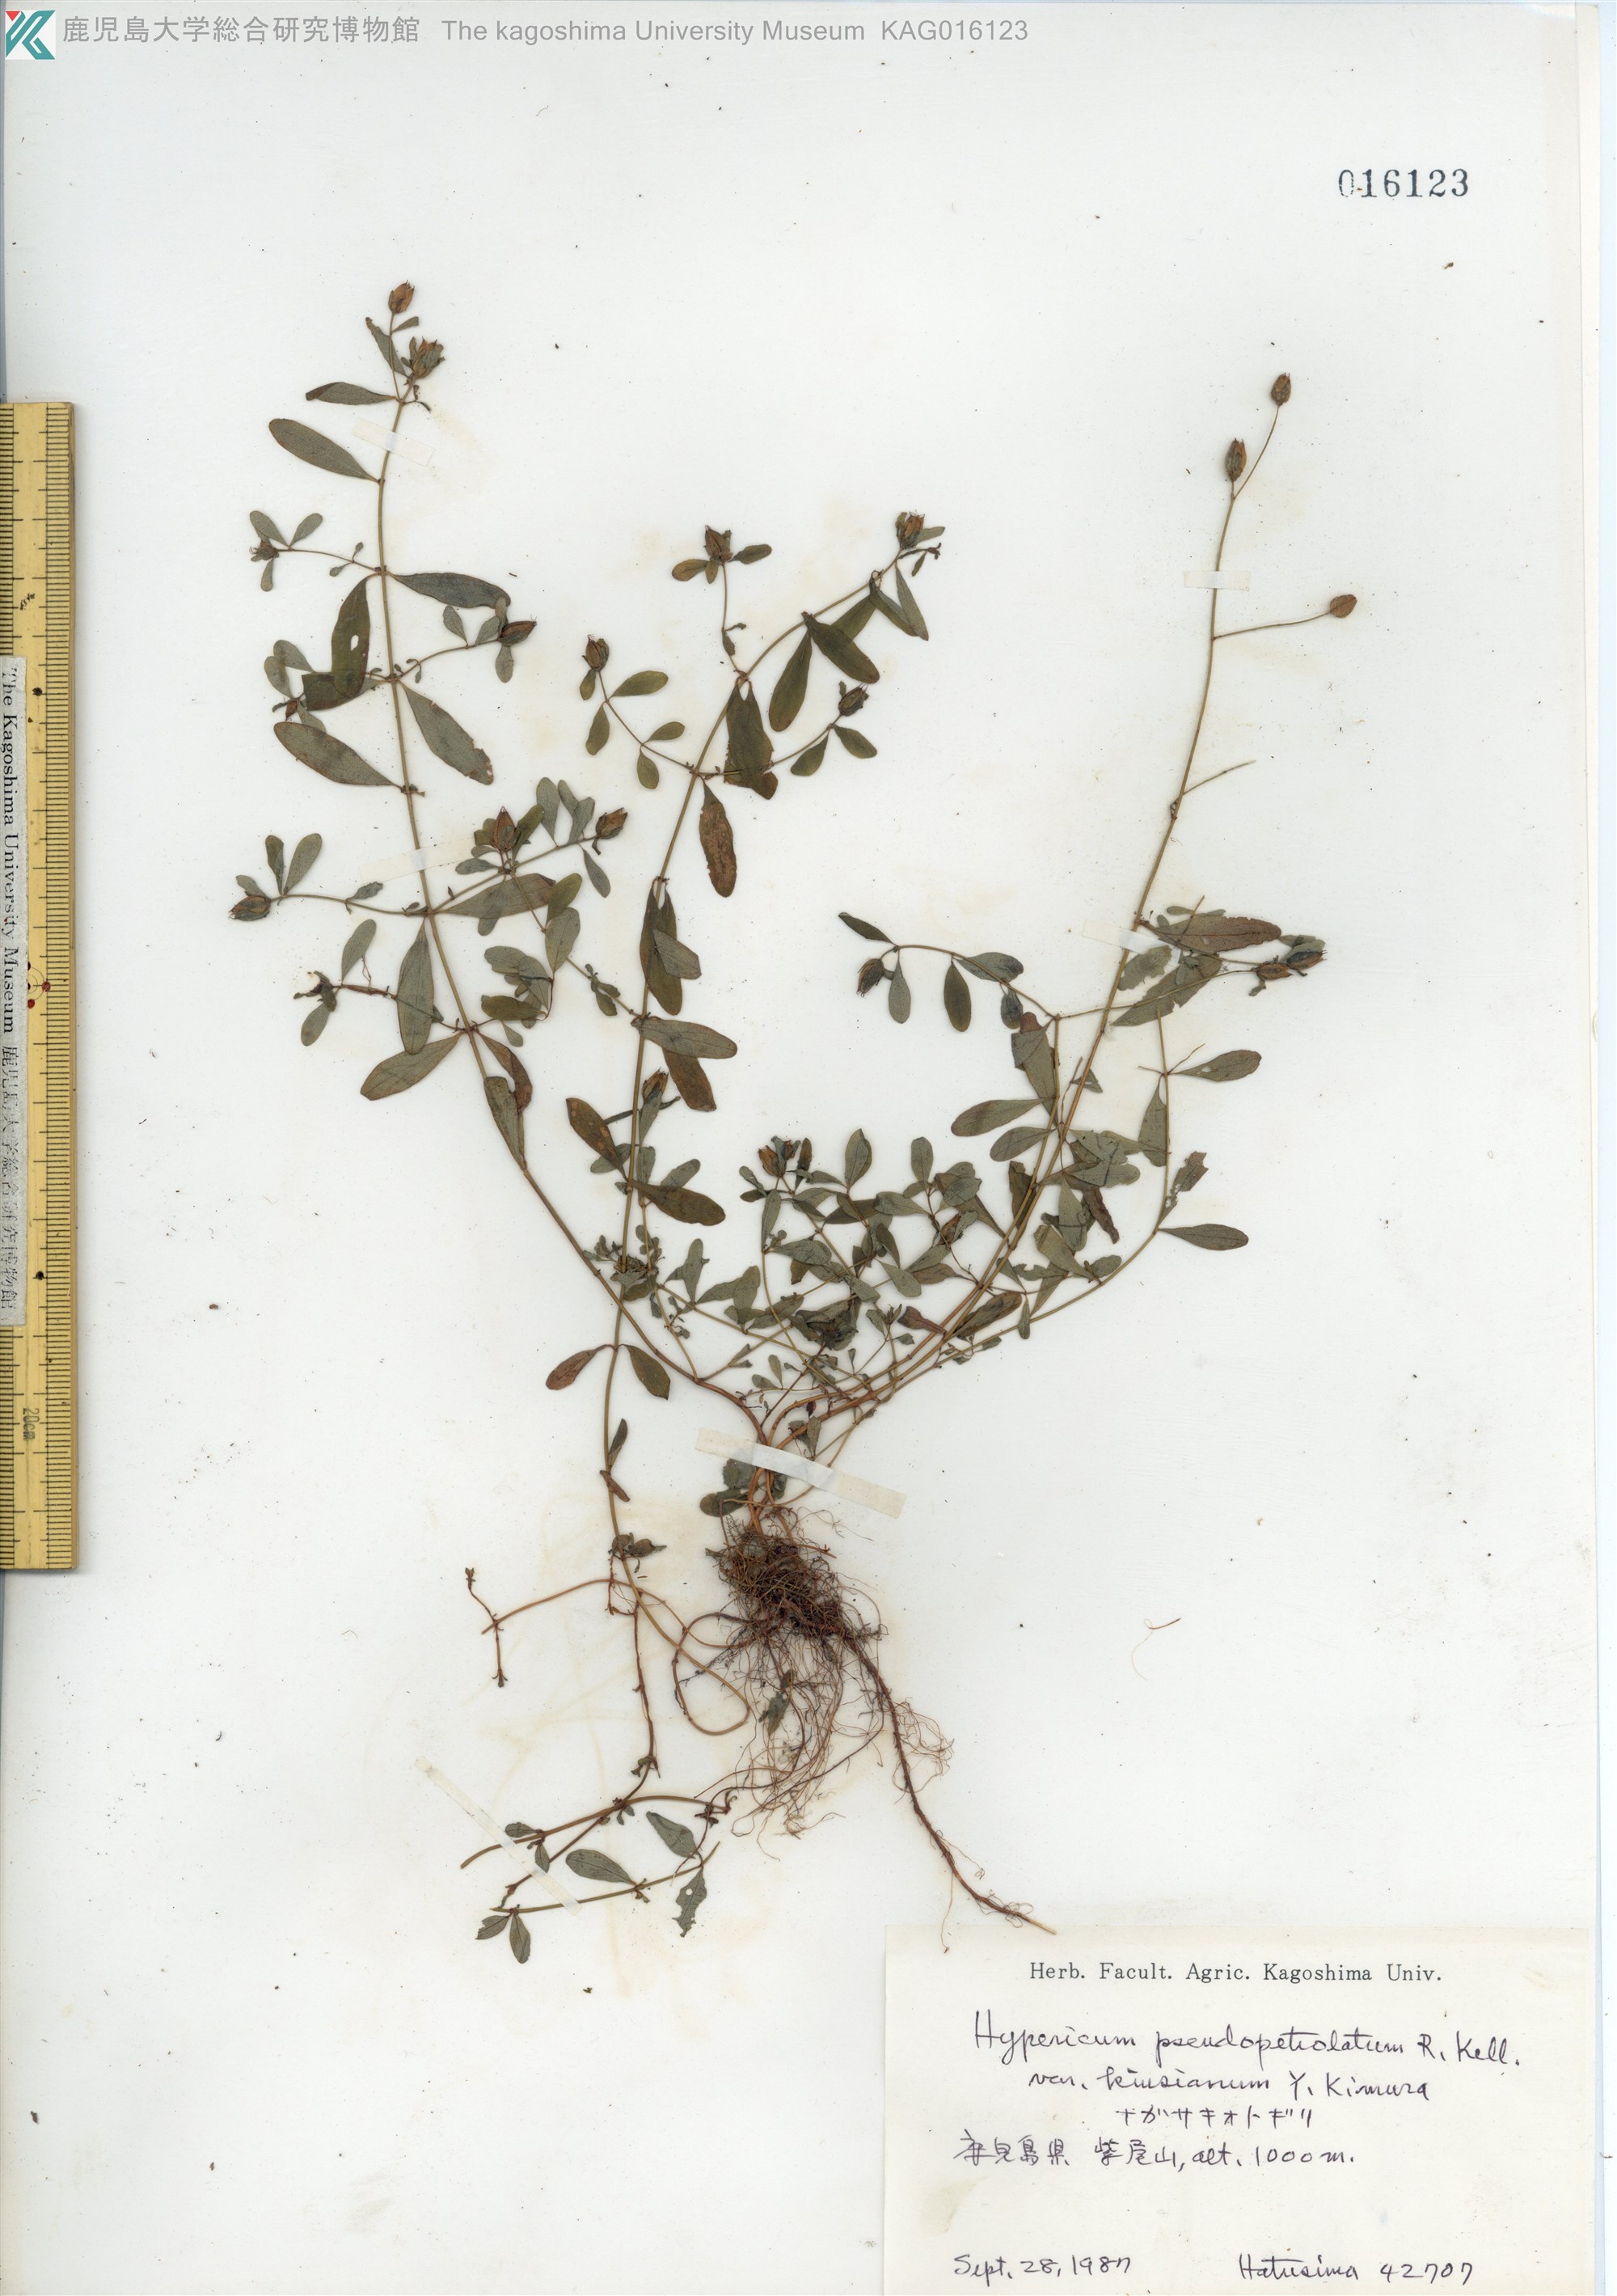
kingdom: Plantae
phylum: Tracheophyta
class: Magnoliopsida
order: Malpighiales
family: Hypericaceae
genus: Hypericum
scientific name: Hypericum pseudopetiolatum
